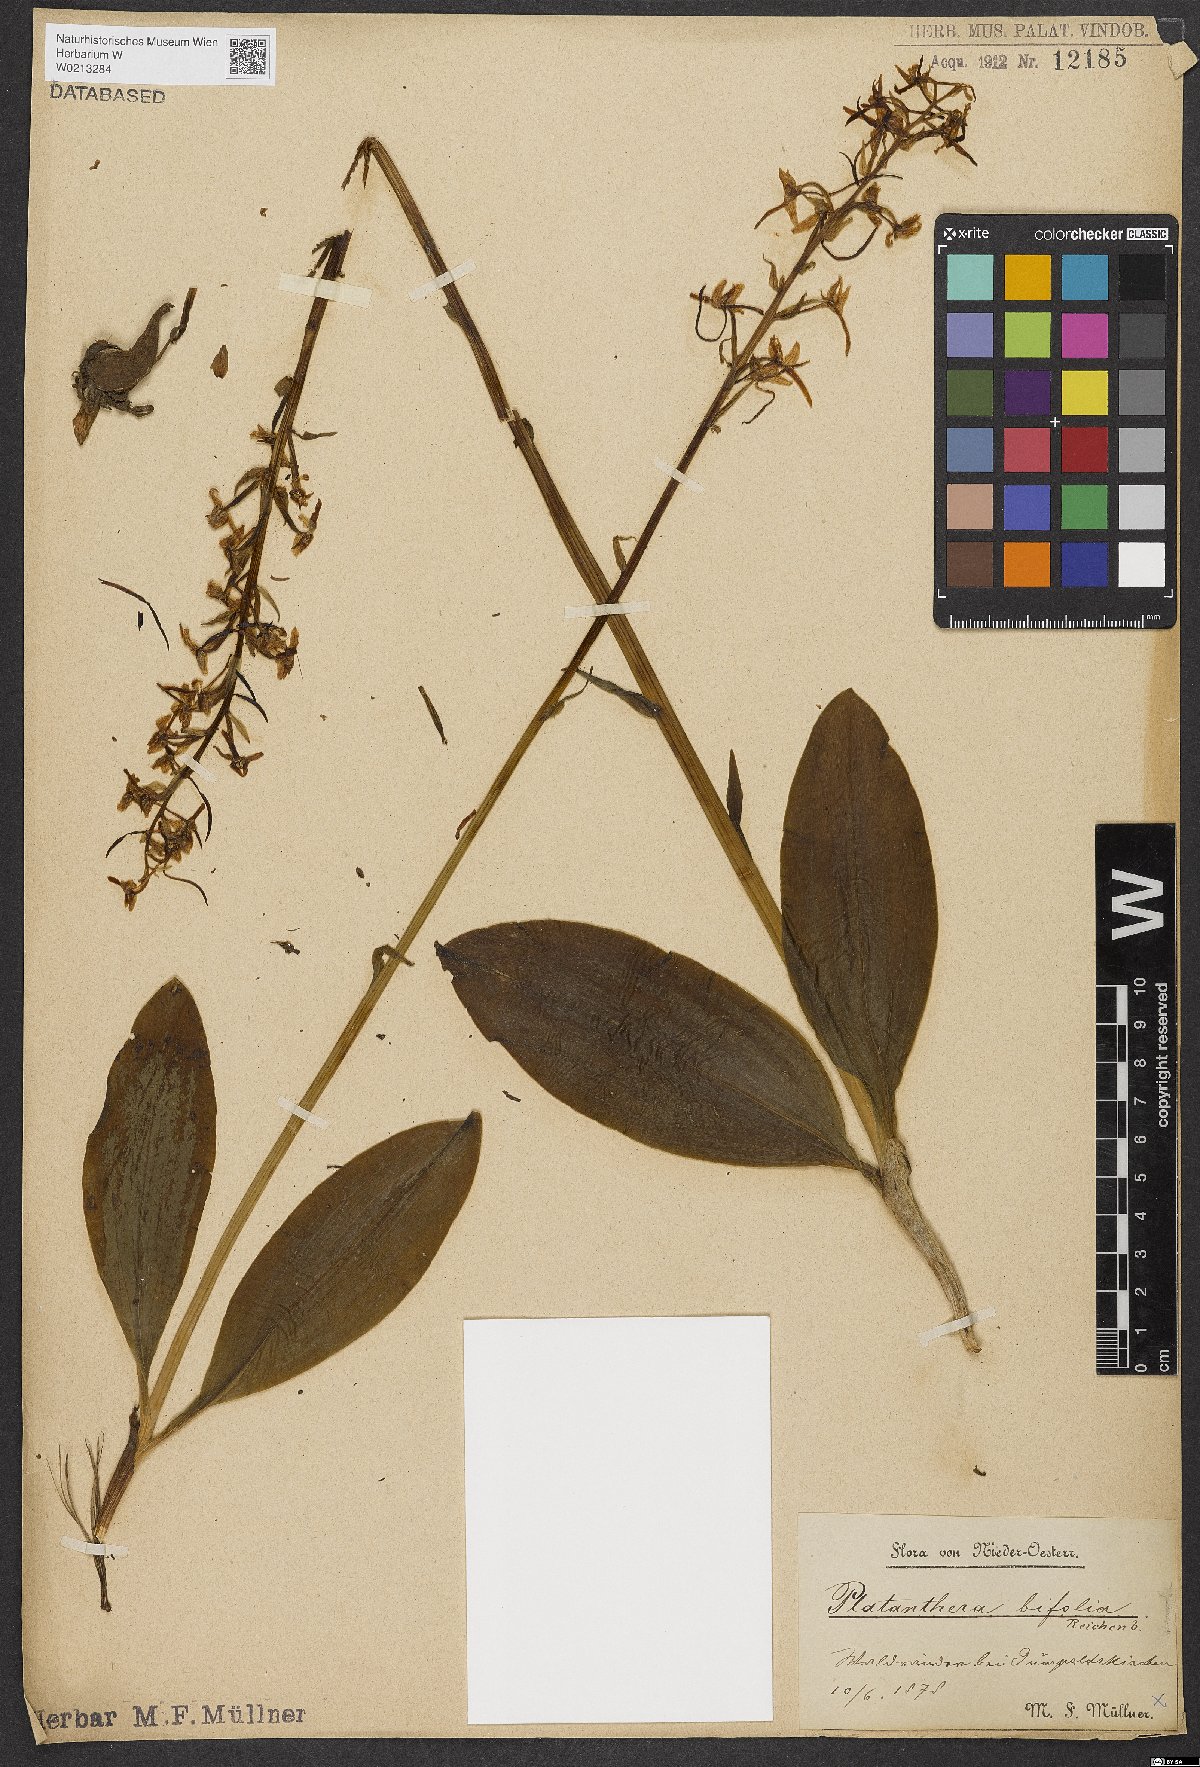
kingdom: Plantae
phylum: Tracheophyta
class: Liliopsida
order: Asparagales
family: Orchidaceae
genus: Platanthera
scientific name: Platanthera bifolia
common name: Lesser butterfly-orchid
